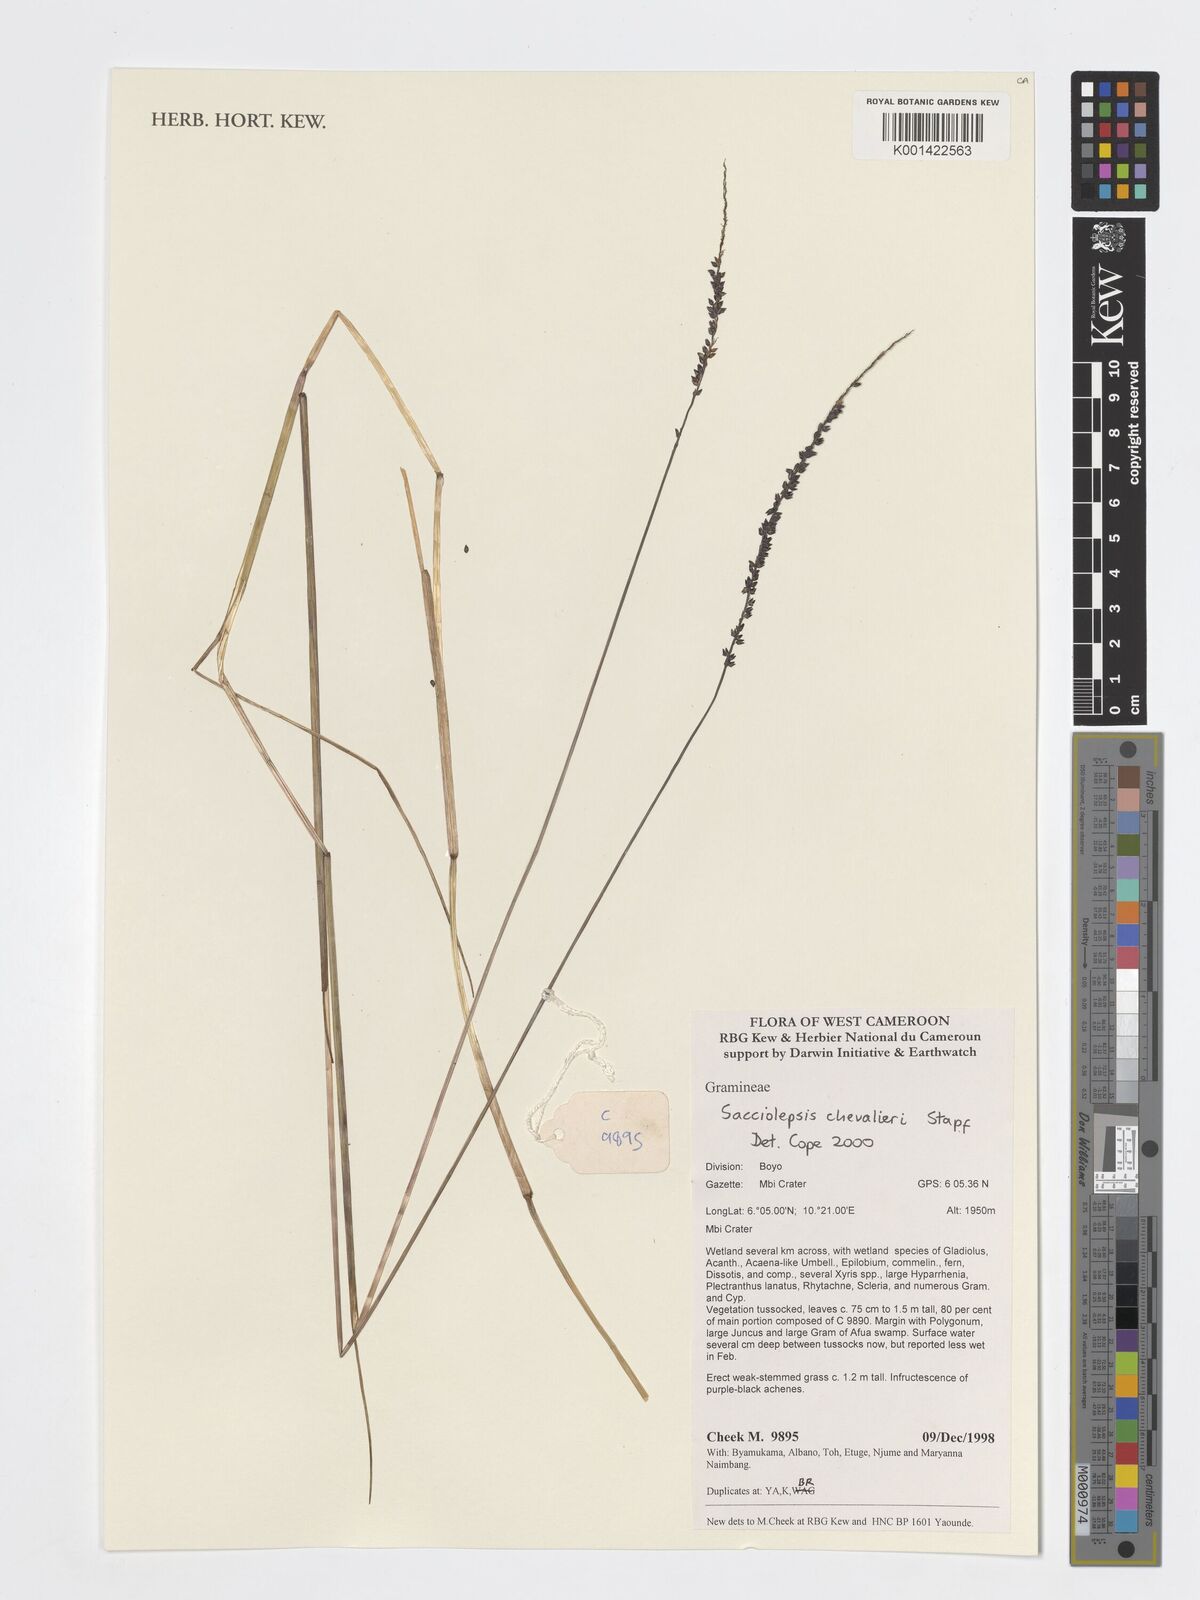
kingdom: Plantae
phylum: Tracheophyta
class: Liliopsida
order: Poales
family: Poaceae
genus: Sacciolepis
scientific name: Sacciolepis chevalieri
